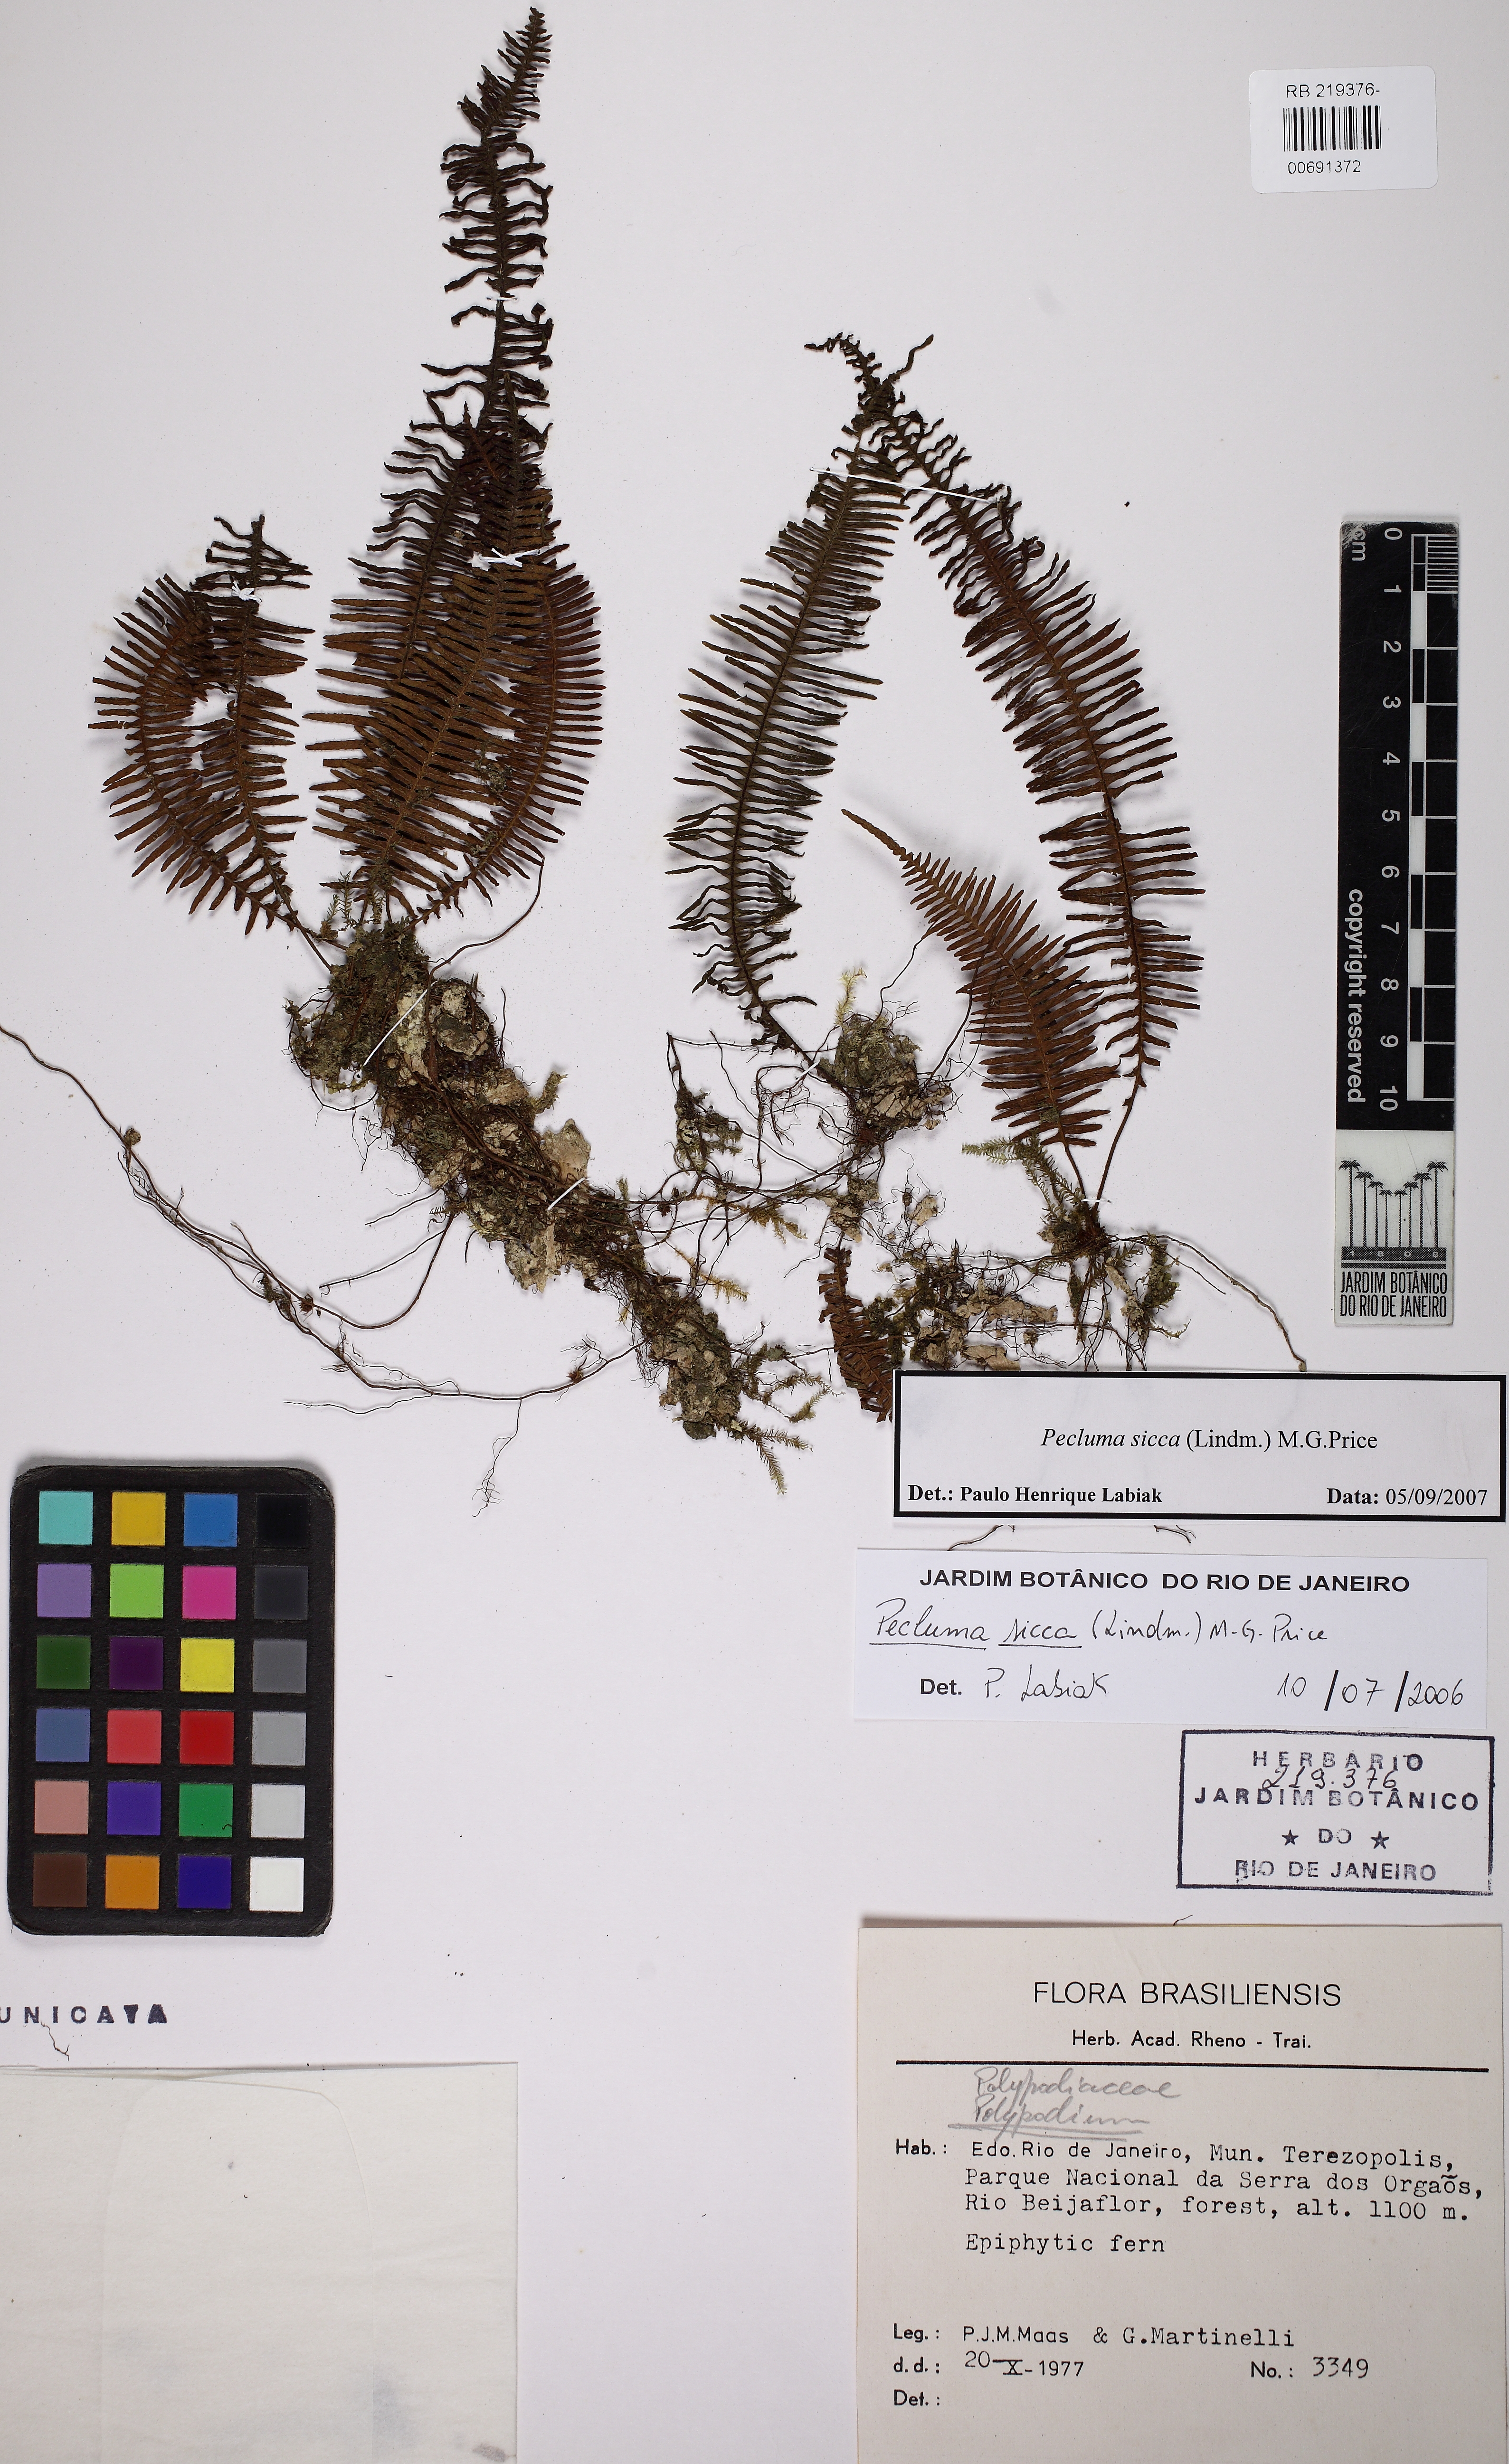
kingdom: Plantae
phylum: Tracheophyta
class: Polypodiopsida
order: Polypodiales
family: Polypodiaceae
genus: Pecluma
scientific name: Pecluma sicca
